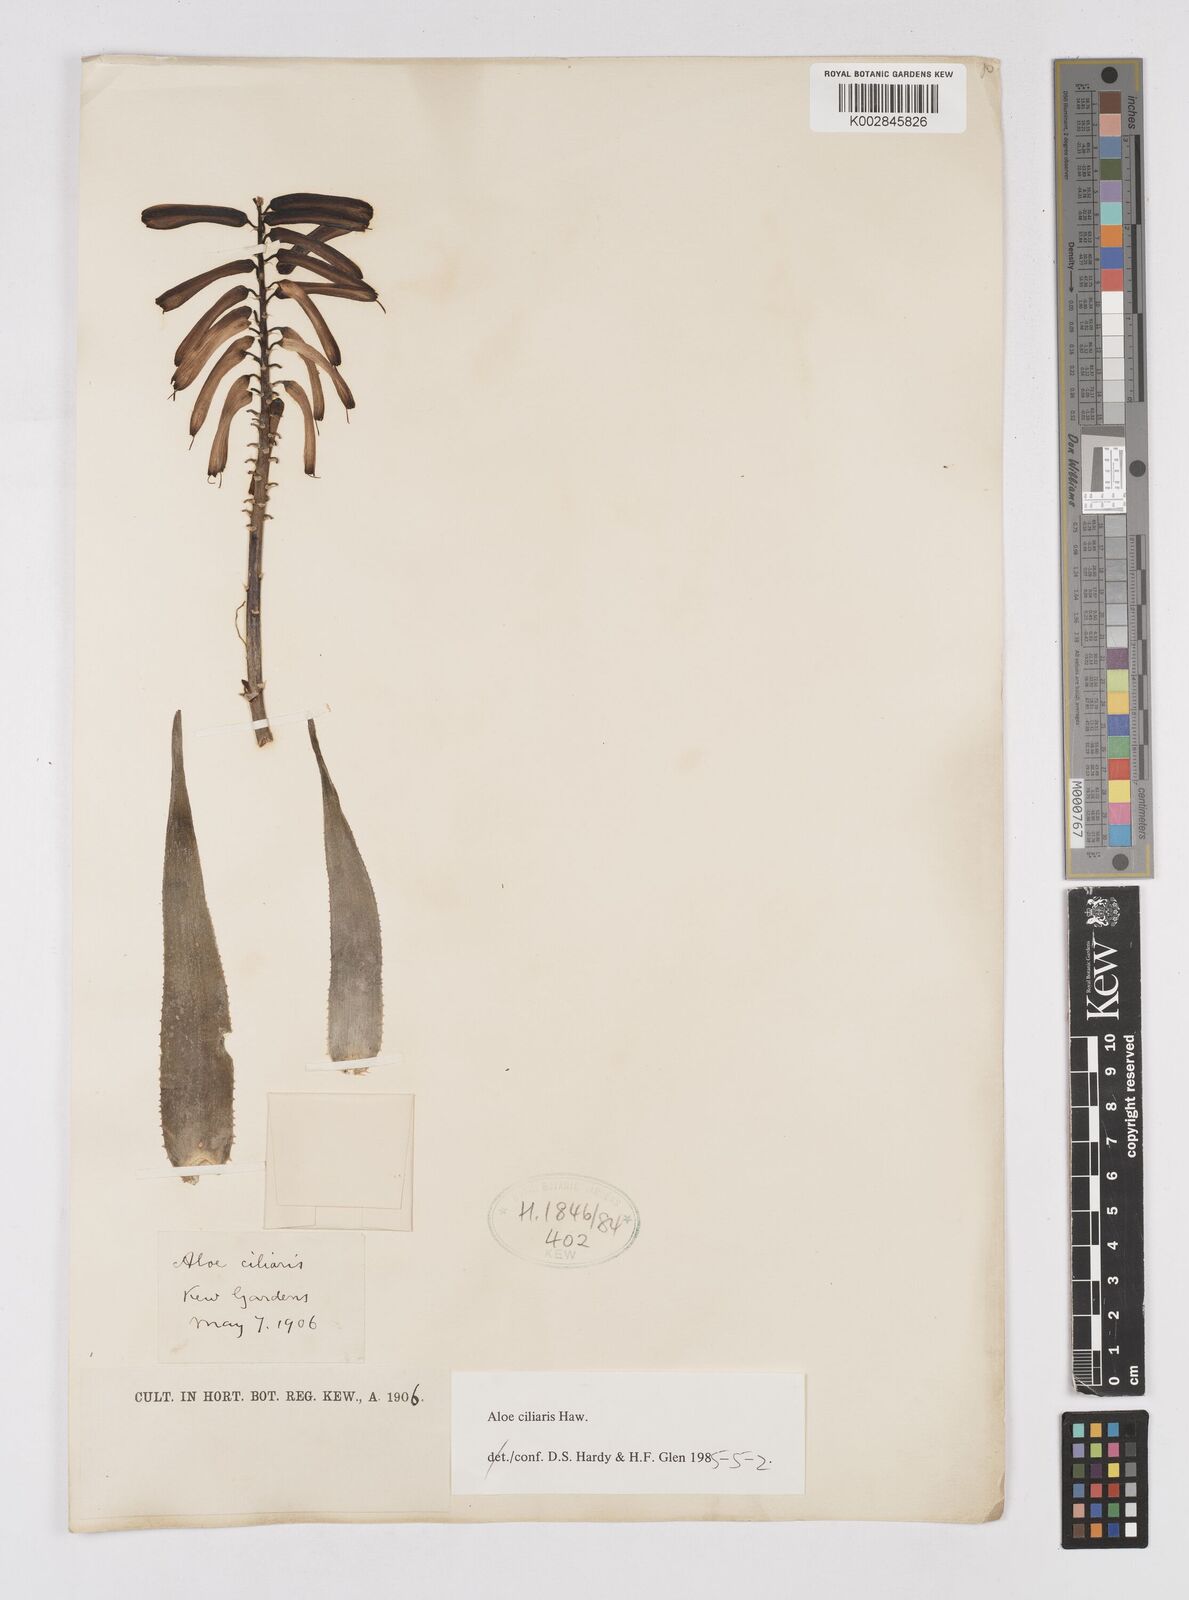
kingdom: Plantae
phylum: Tracheophyta
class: Liliopsida
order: Asparagales
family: Asphodelaceae
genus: Aloiampelos
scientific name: Aloiampelos ciliaris
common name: Climbing aloe
